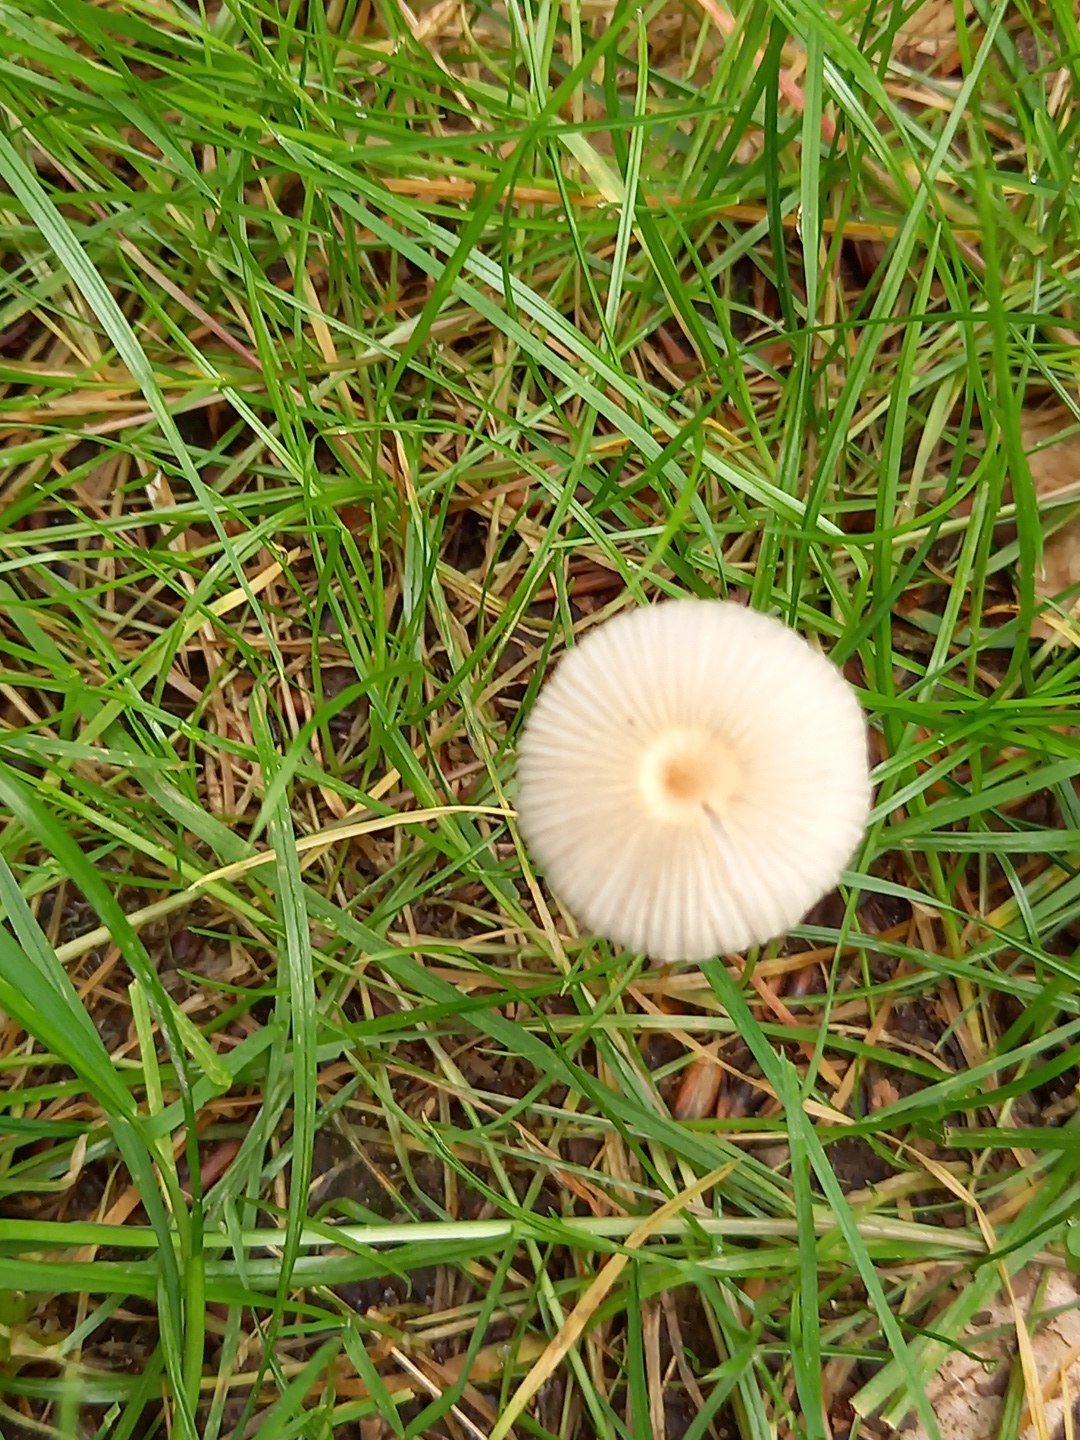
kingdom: Fungi
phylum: Basidiomycota
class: Agaricomycetes
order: Agaricales
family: Psathyrellaceae
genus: Parasola
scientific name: Parasola
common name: hjulhat
